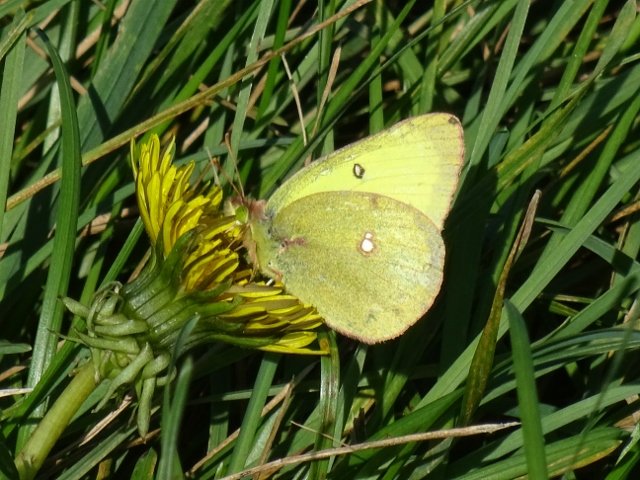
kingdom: Animalia
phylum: Arthropoda
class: Insecta
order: Lepidoptera
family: Pieridae
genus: Colias
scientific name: Colias philodice
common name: Clouded Sulphur
